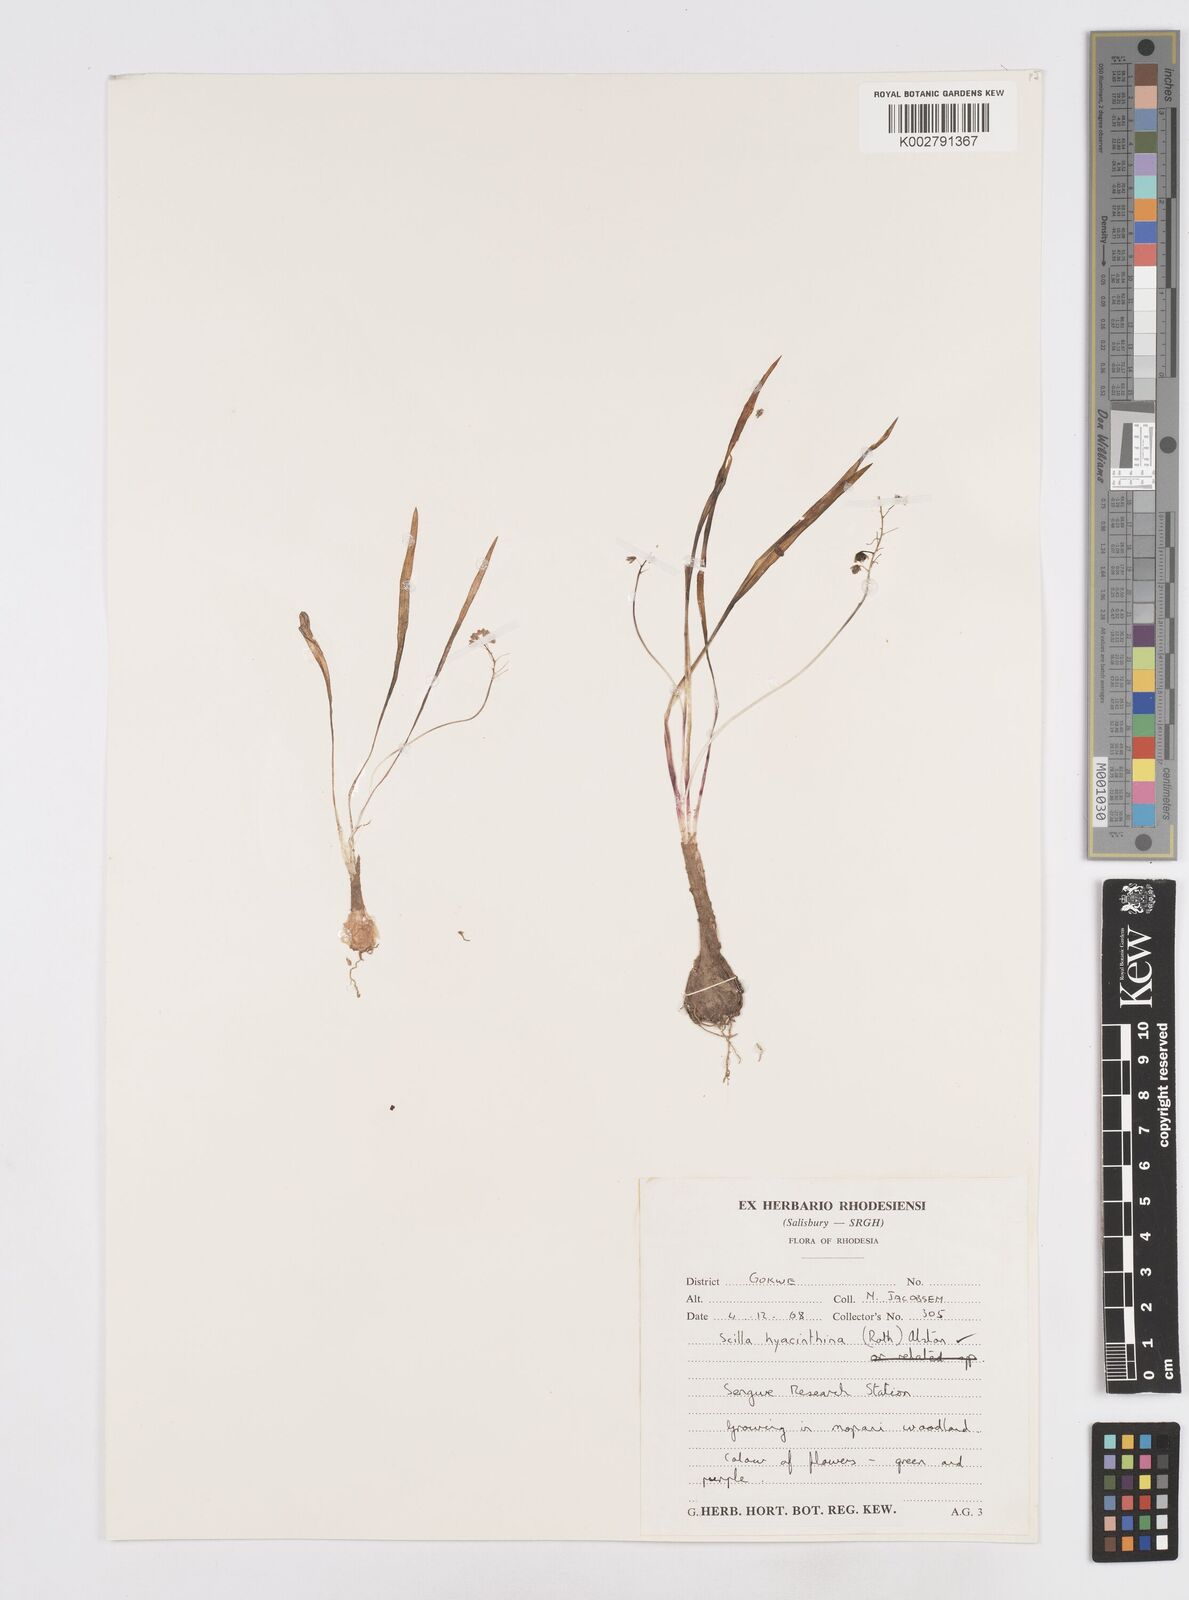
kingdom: Plantae
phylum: Tracheophyta
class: Liliopsida
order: Asparagales
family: Asparagaceae
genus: Ledebouria
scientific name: Ledebouria revoluta
